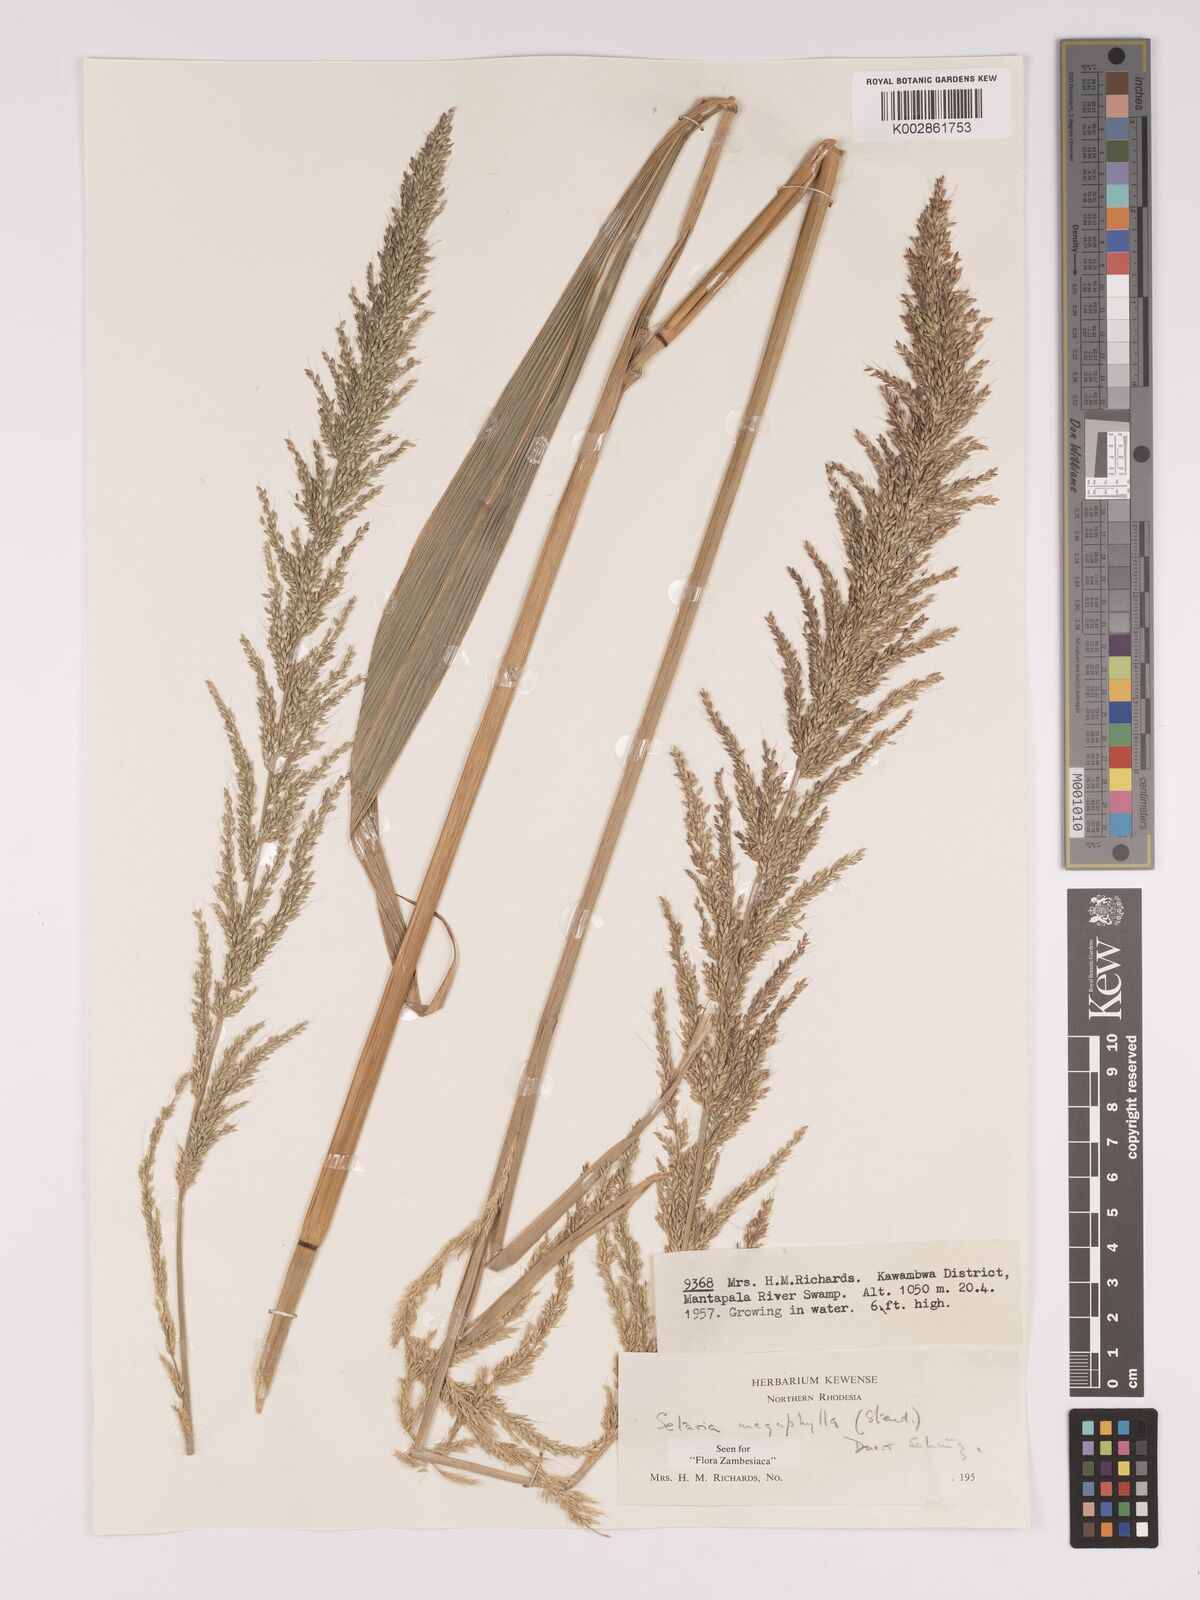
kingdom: Plantae
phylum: Tracheophyta
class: Liliopsida
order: Poales
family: Poaceae
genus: Setaria
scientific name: Setaria megaphylla
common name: Bigleaf bristlegrass
